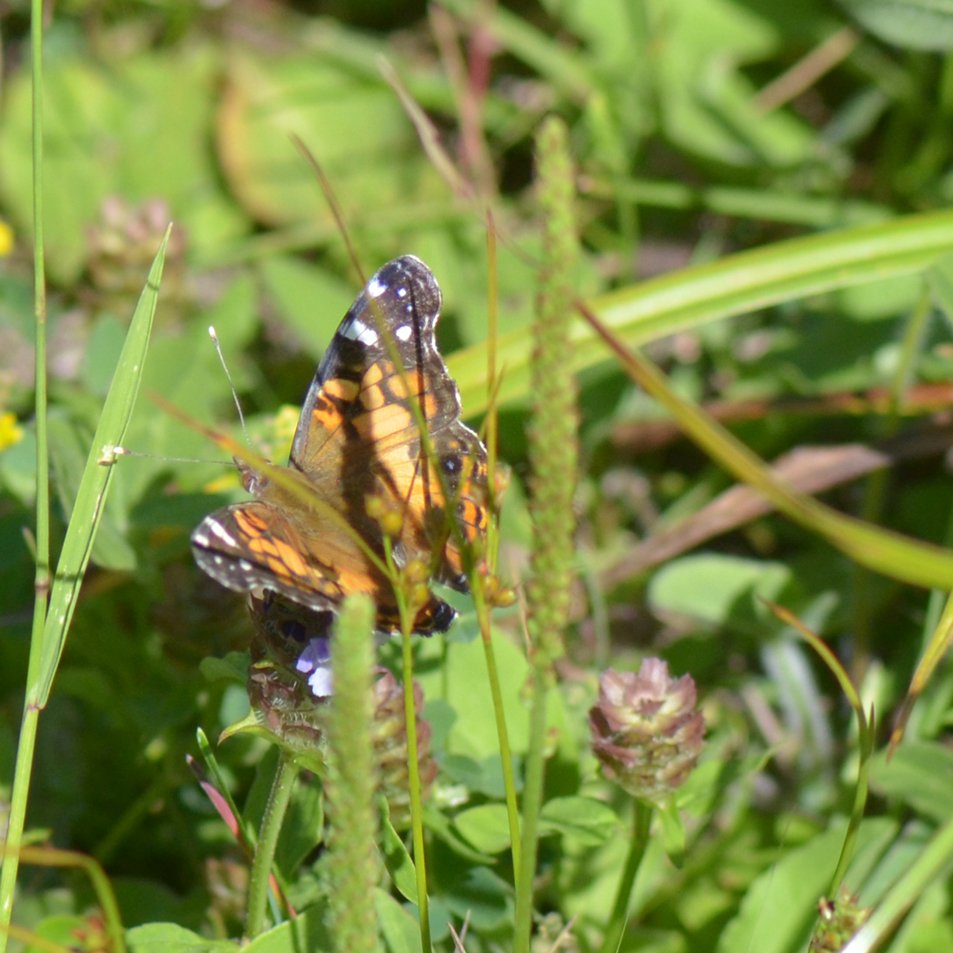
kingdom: Animalia
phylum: Arthropoda
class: Insecta
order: Lepidoptera
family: Nymphalidae
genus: Vanessa
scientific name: Vanessa virginiensis
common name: American Lady
